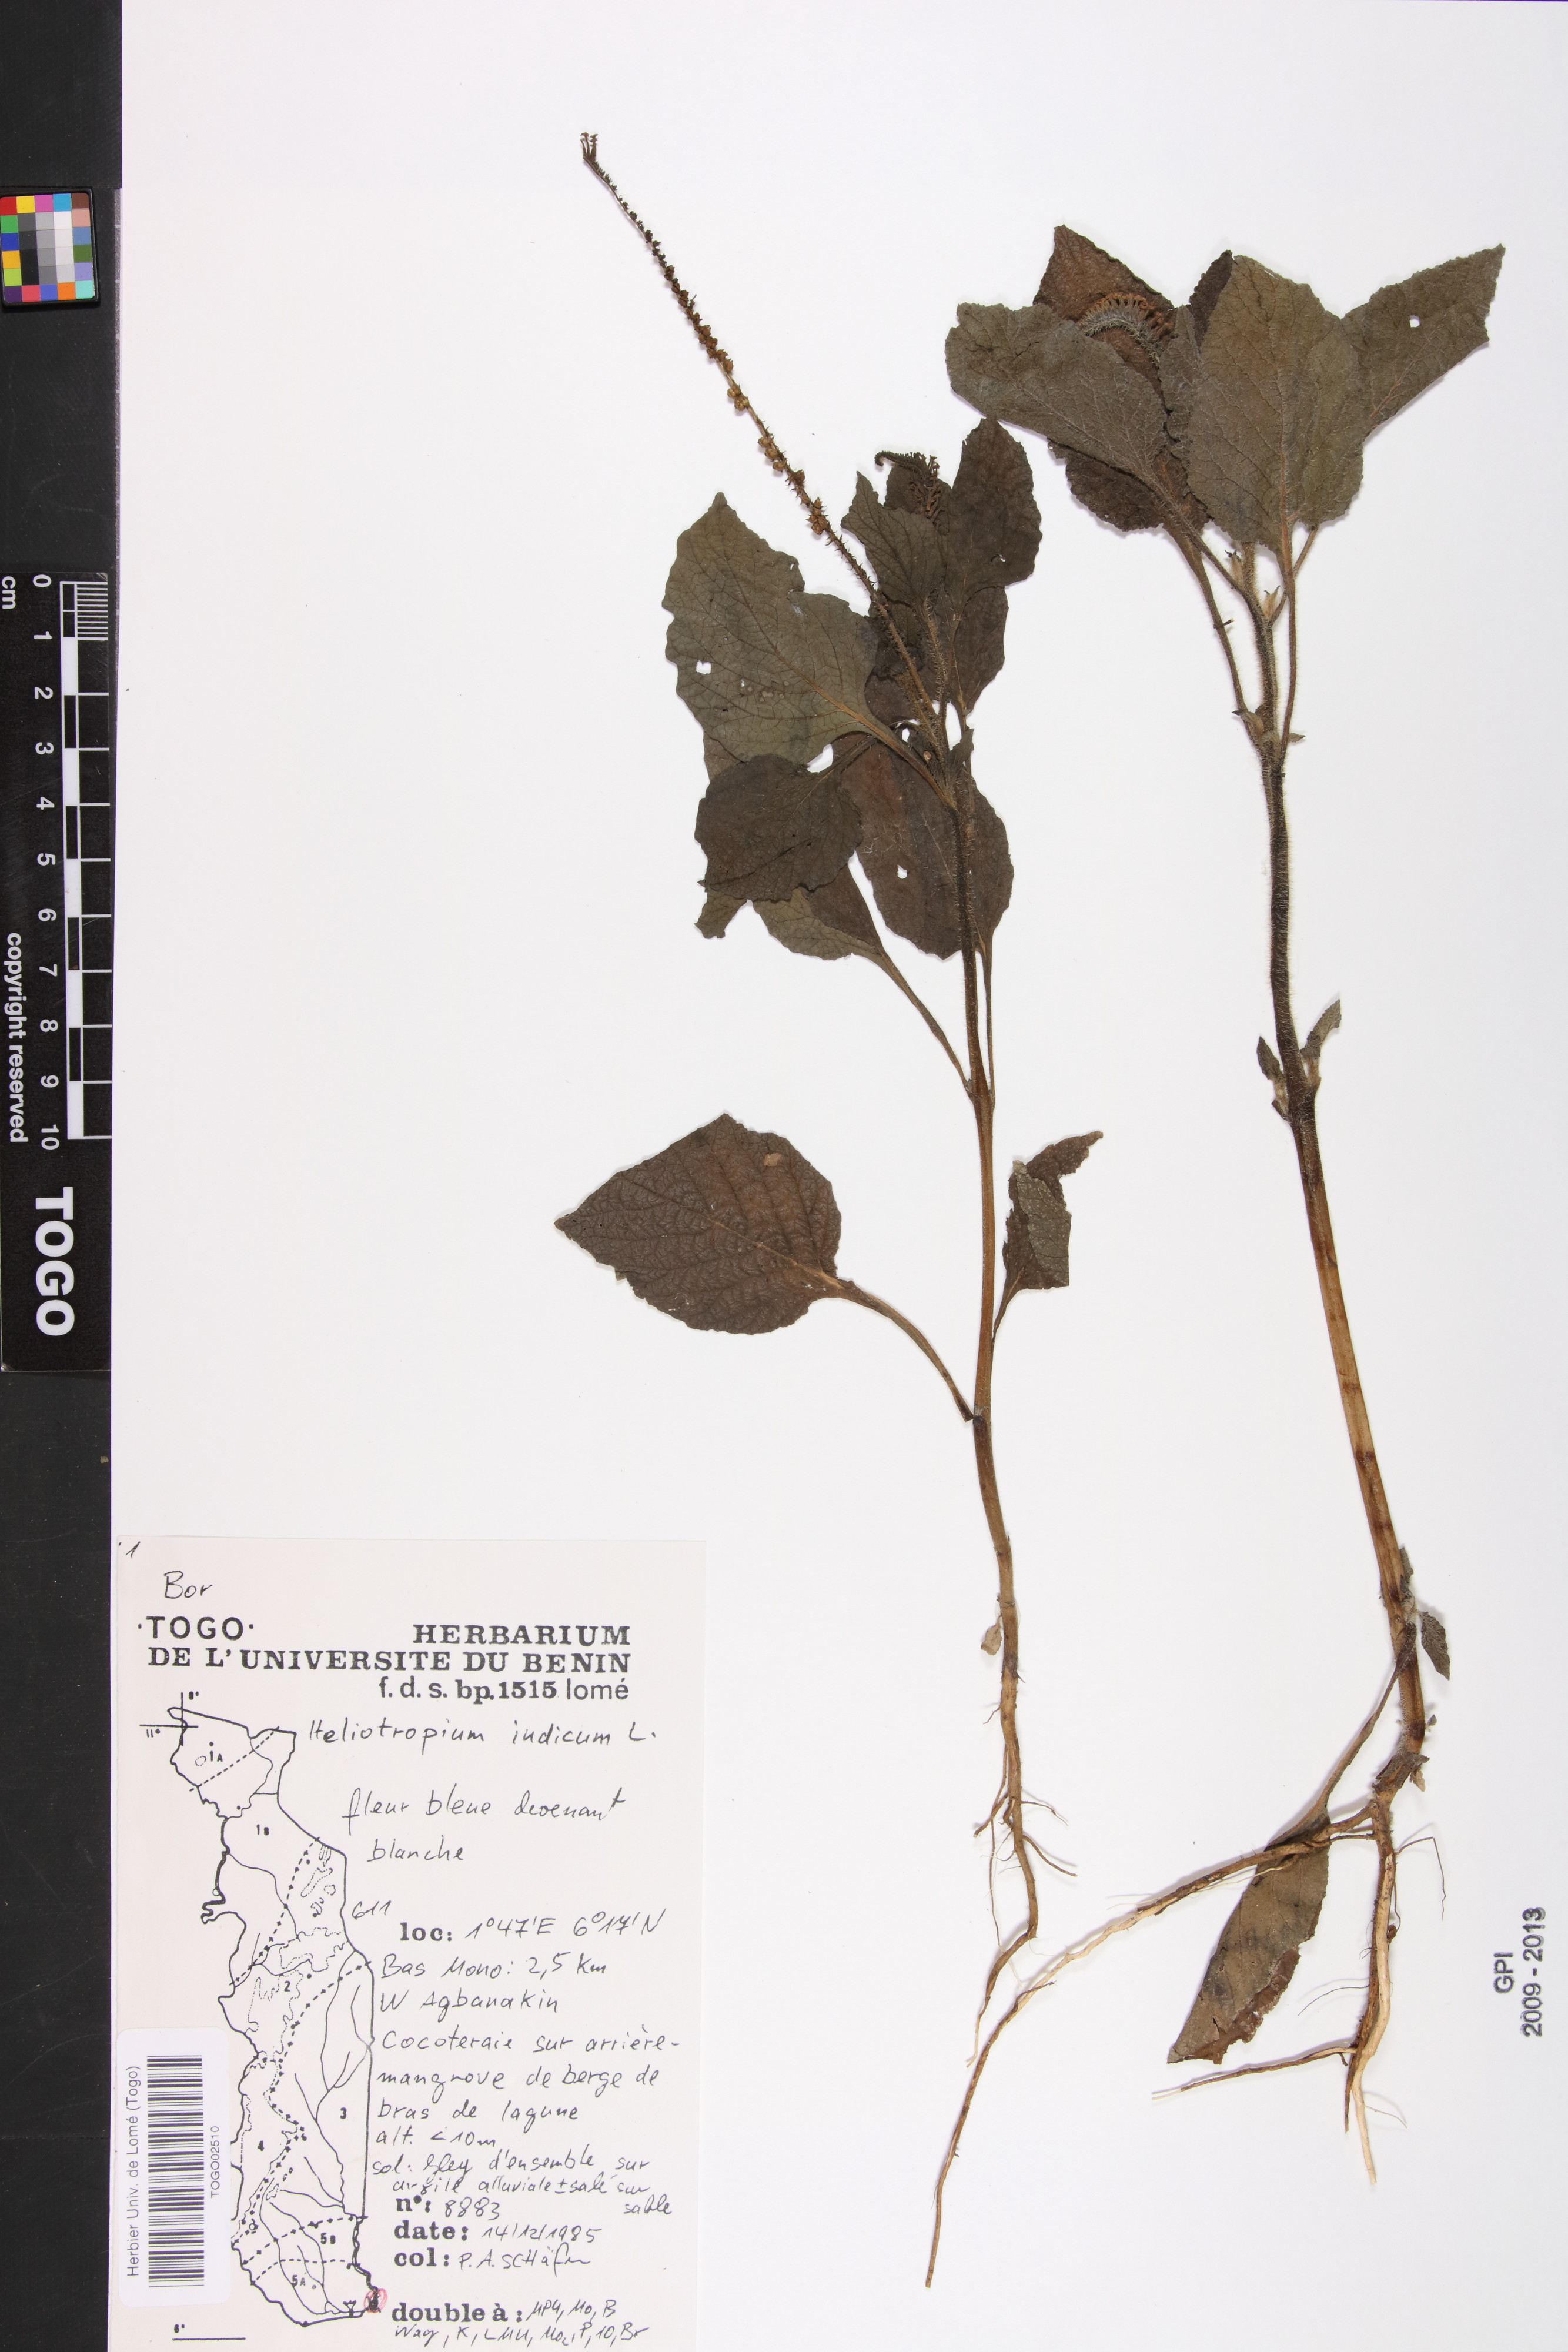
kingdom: Plantae
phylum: Tracheophyta
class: Magnoliopsida
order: Boraginales
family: Heliotropiaceae
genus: Heliotropium
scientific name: Heliotropium indicum
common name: Indian heliotrope
